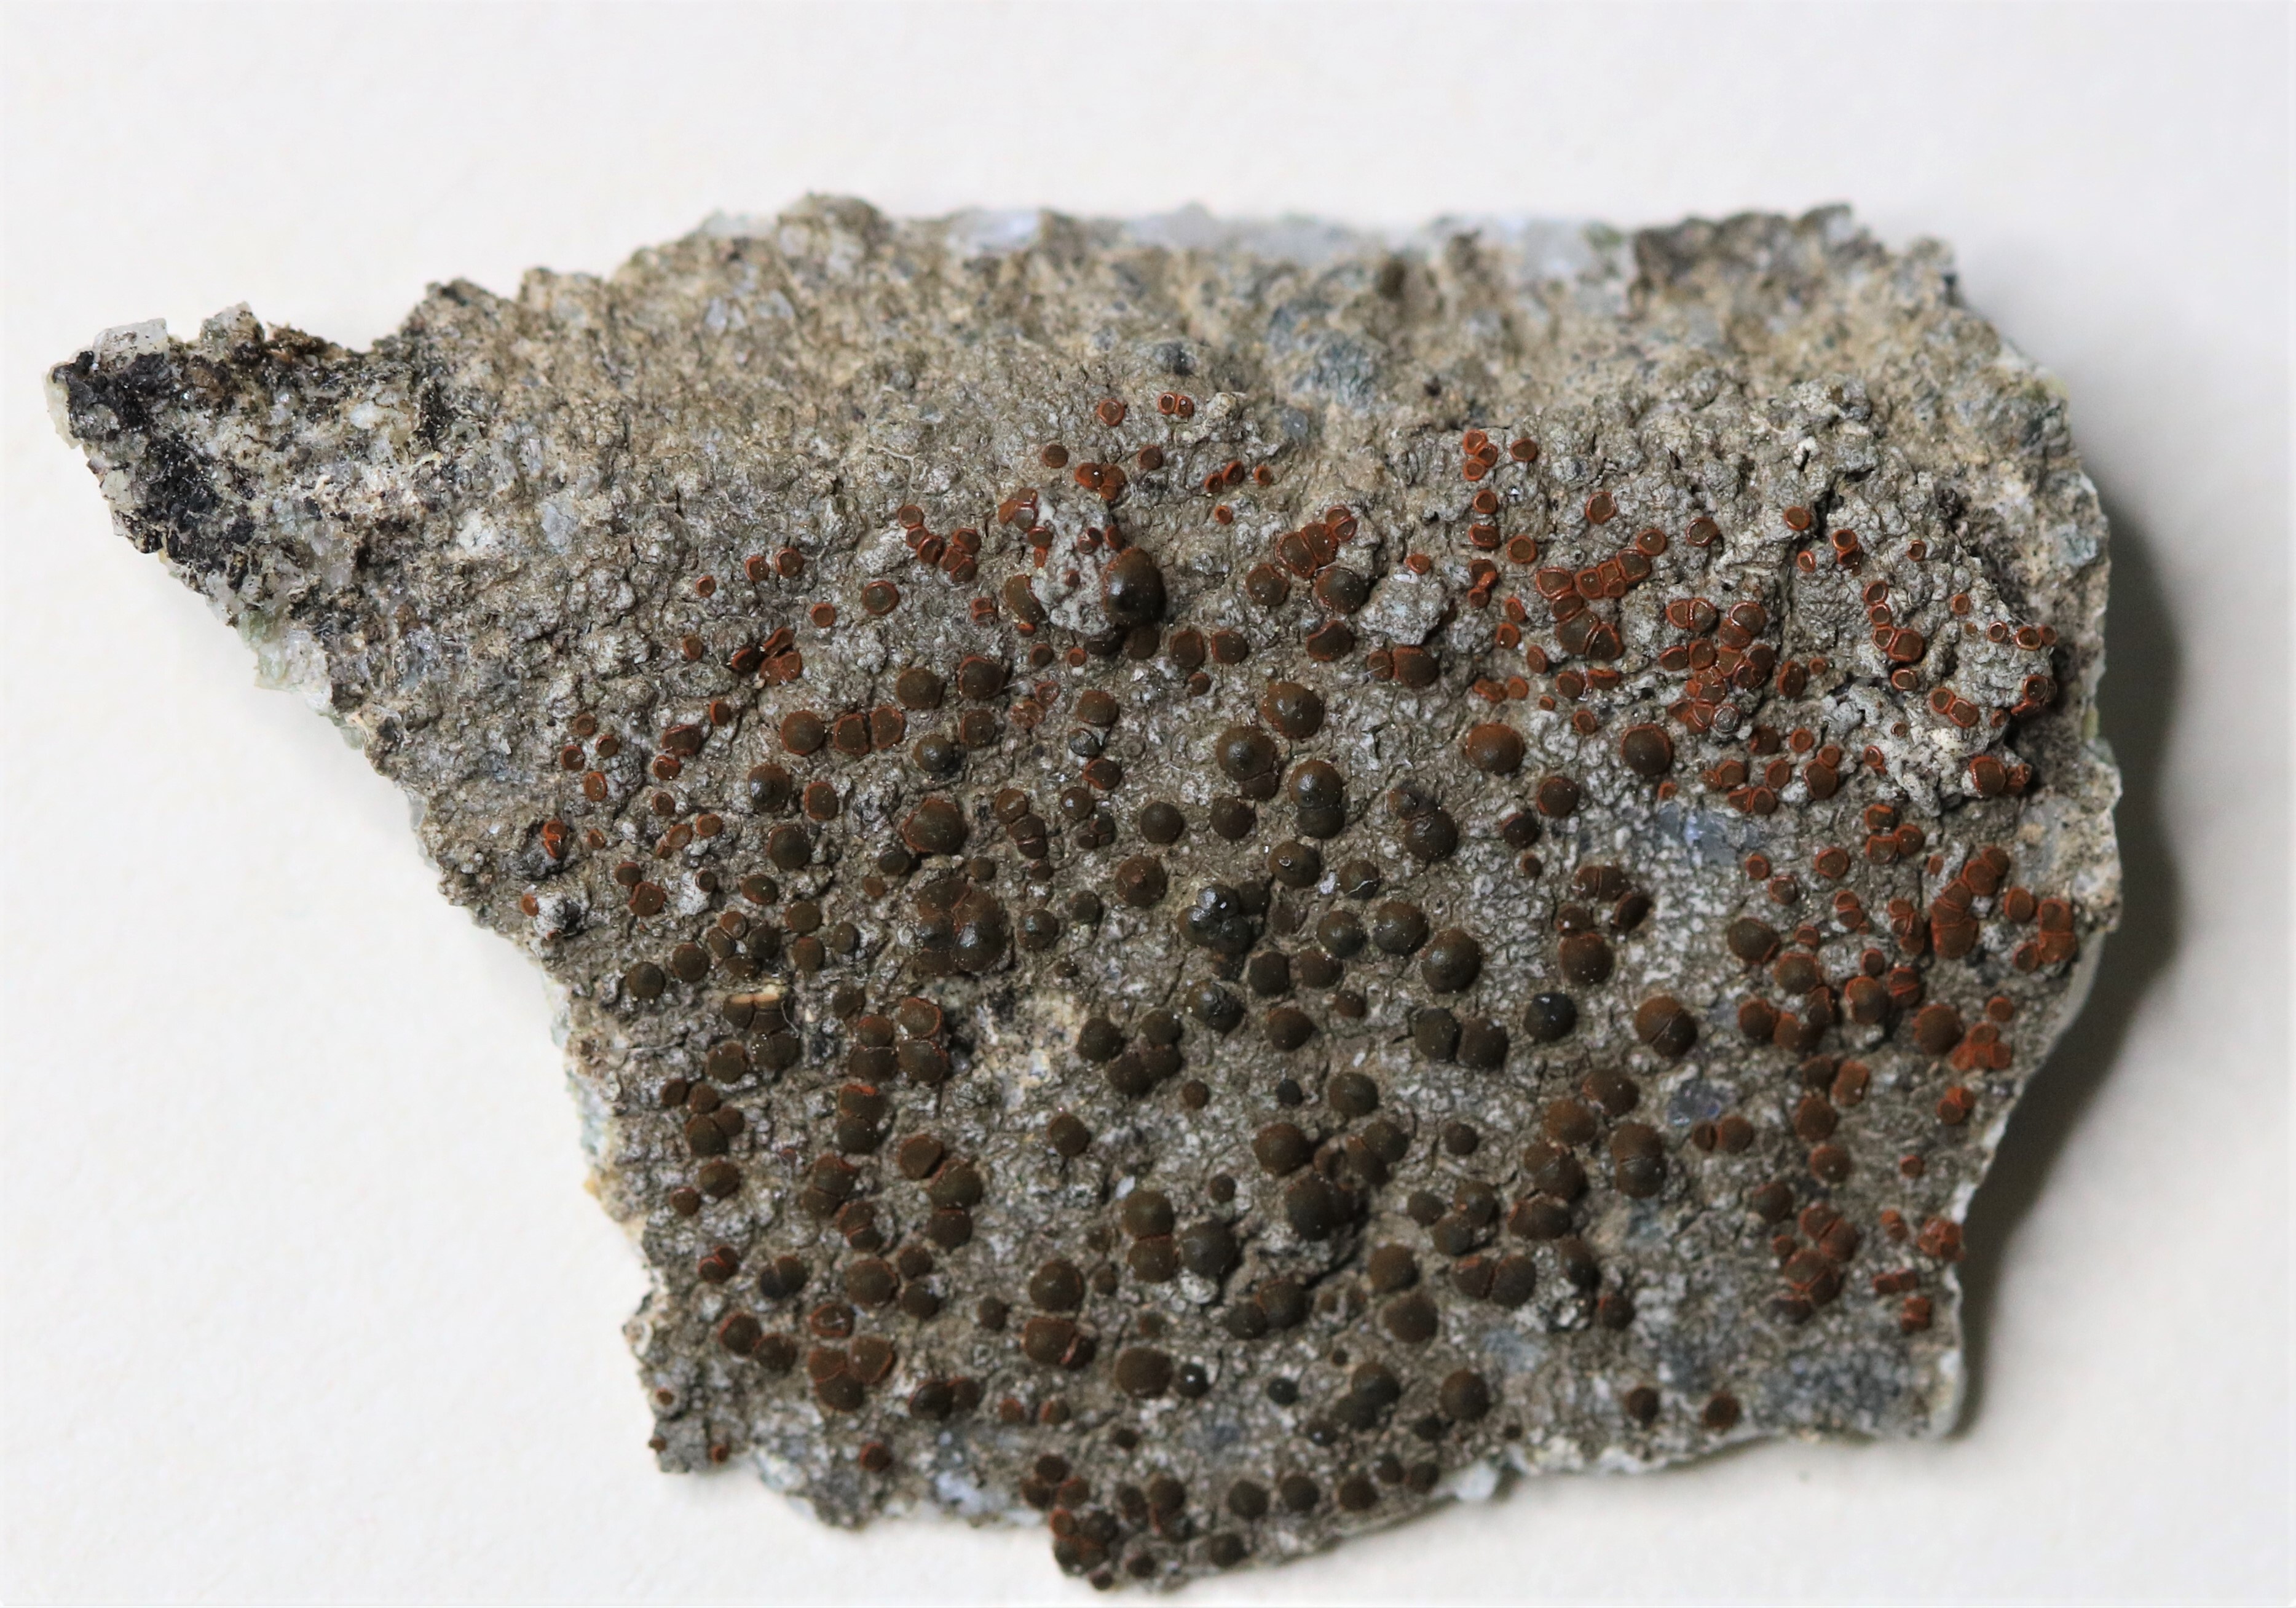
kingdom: Fungi
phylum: Ascomycota
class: Lecanoromycetes
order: Teloschistales
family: Teloschistaceae
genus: Blastenia
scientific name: Blastenia crenularia
